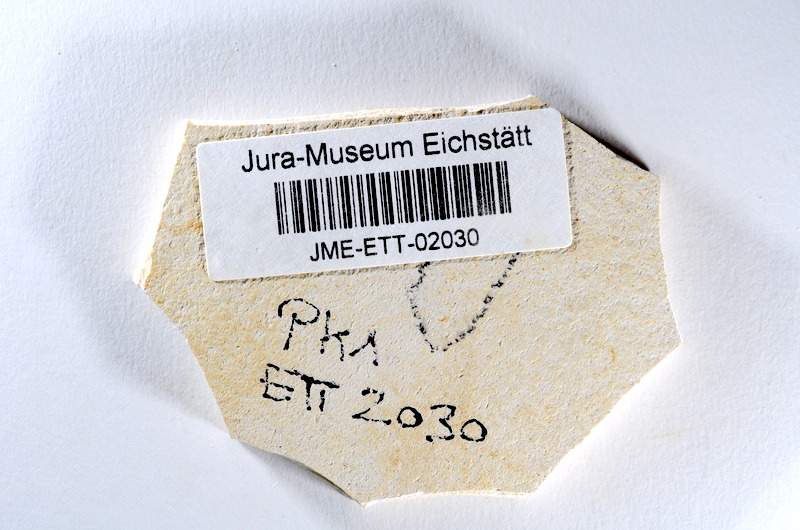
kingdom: Animalia
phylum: Chordata
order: Salmoniformes
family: Orthogonikleithridae
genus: Orthogonikleithrus
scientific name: Orthogonikleithrus hoelli
